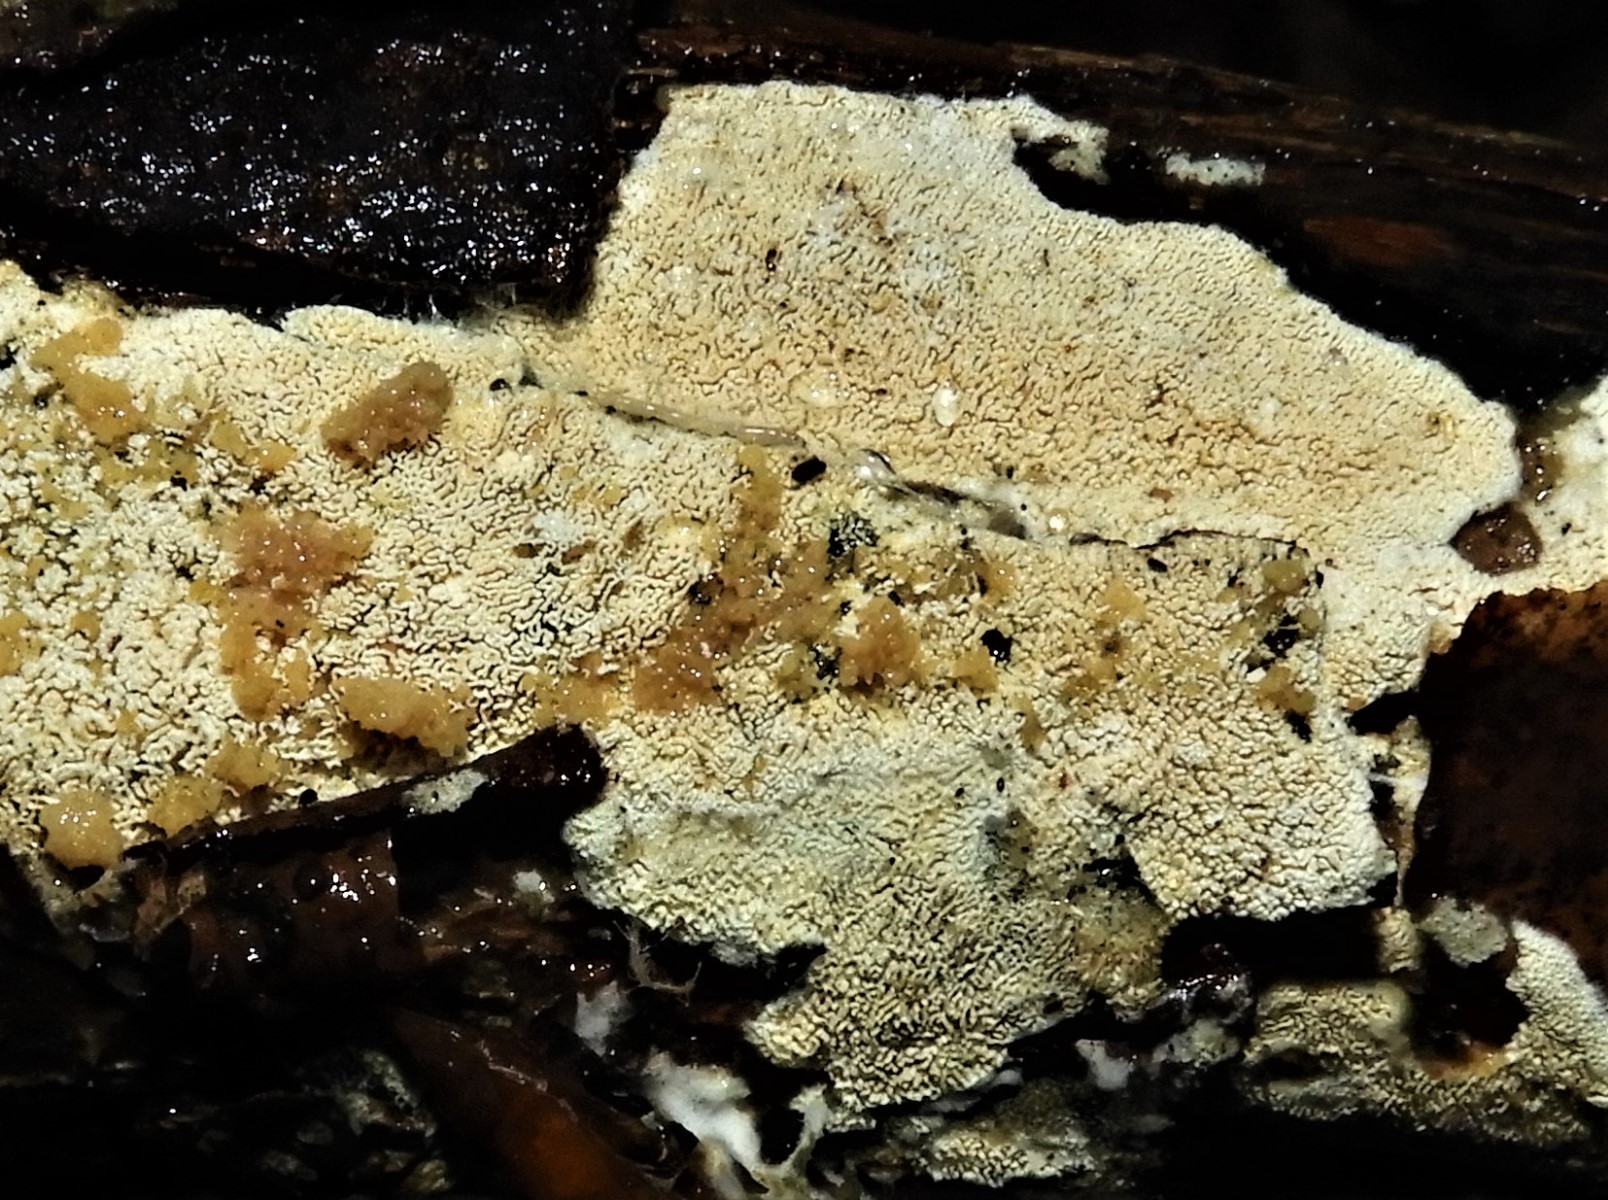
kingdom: Fungi
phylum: Basidiomycota
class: Agaricomycetes
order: Hymenochaetales
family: Schizoporaceae
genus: Xylodon
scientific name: Xylodon subtropicus
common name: labyrint-tandsvamp
